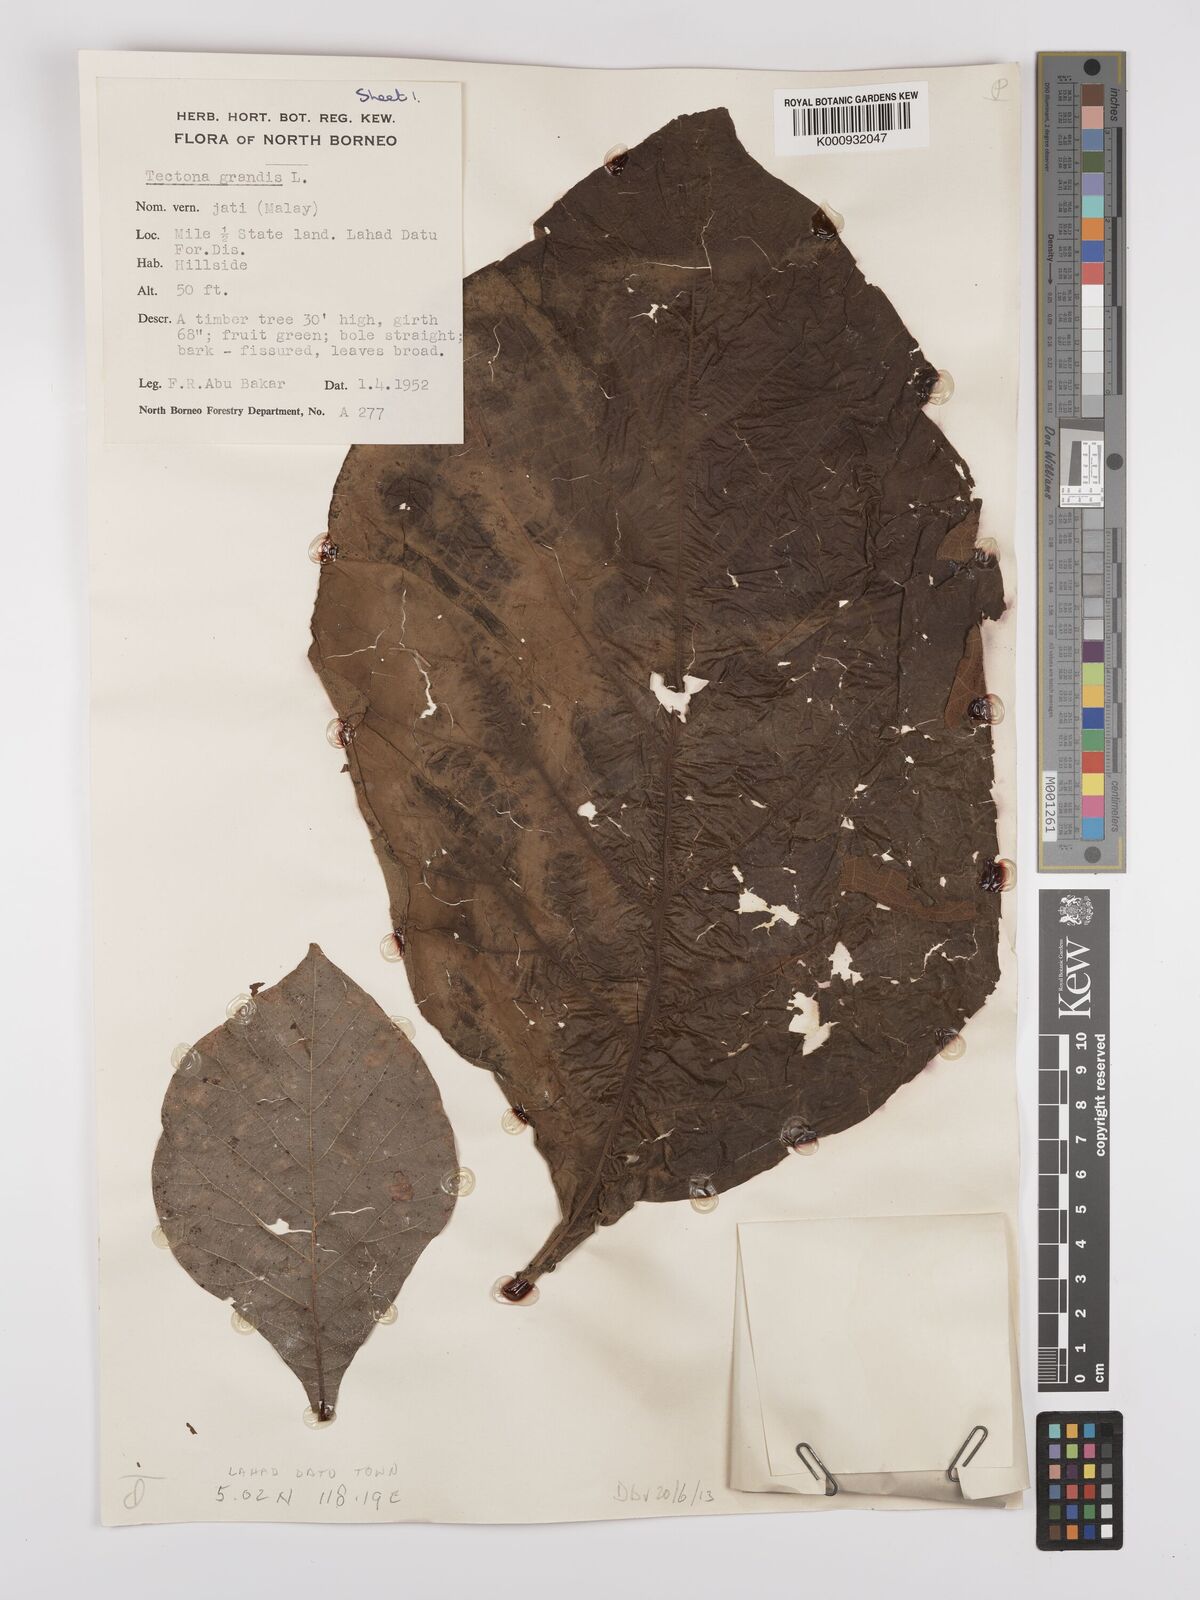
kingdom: Plantae
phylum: Tracheophyta
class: Magnoliopsida
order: Lamiales
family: Lamiaceae
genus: Tectona
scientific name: Tectona grandis
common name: Teak
